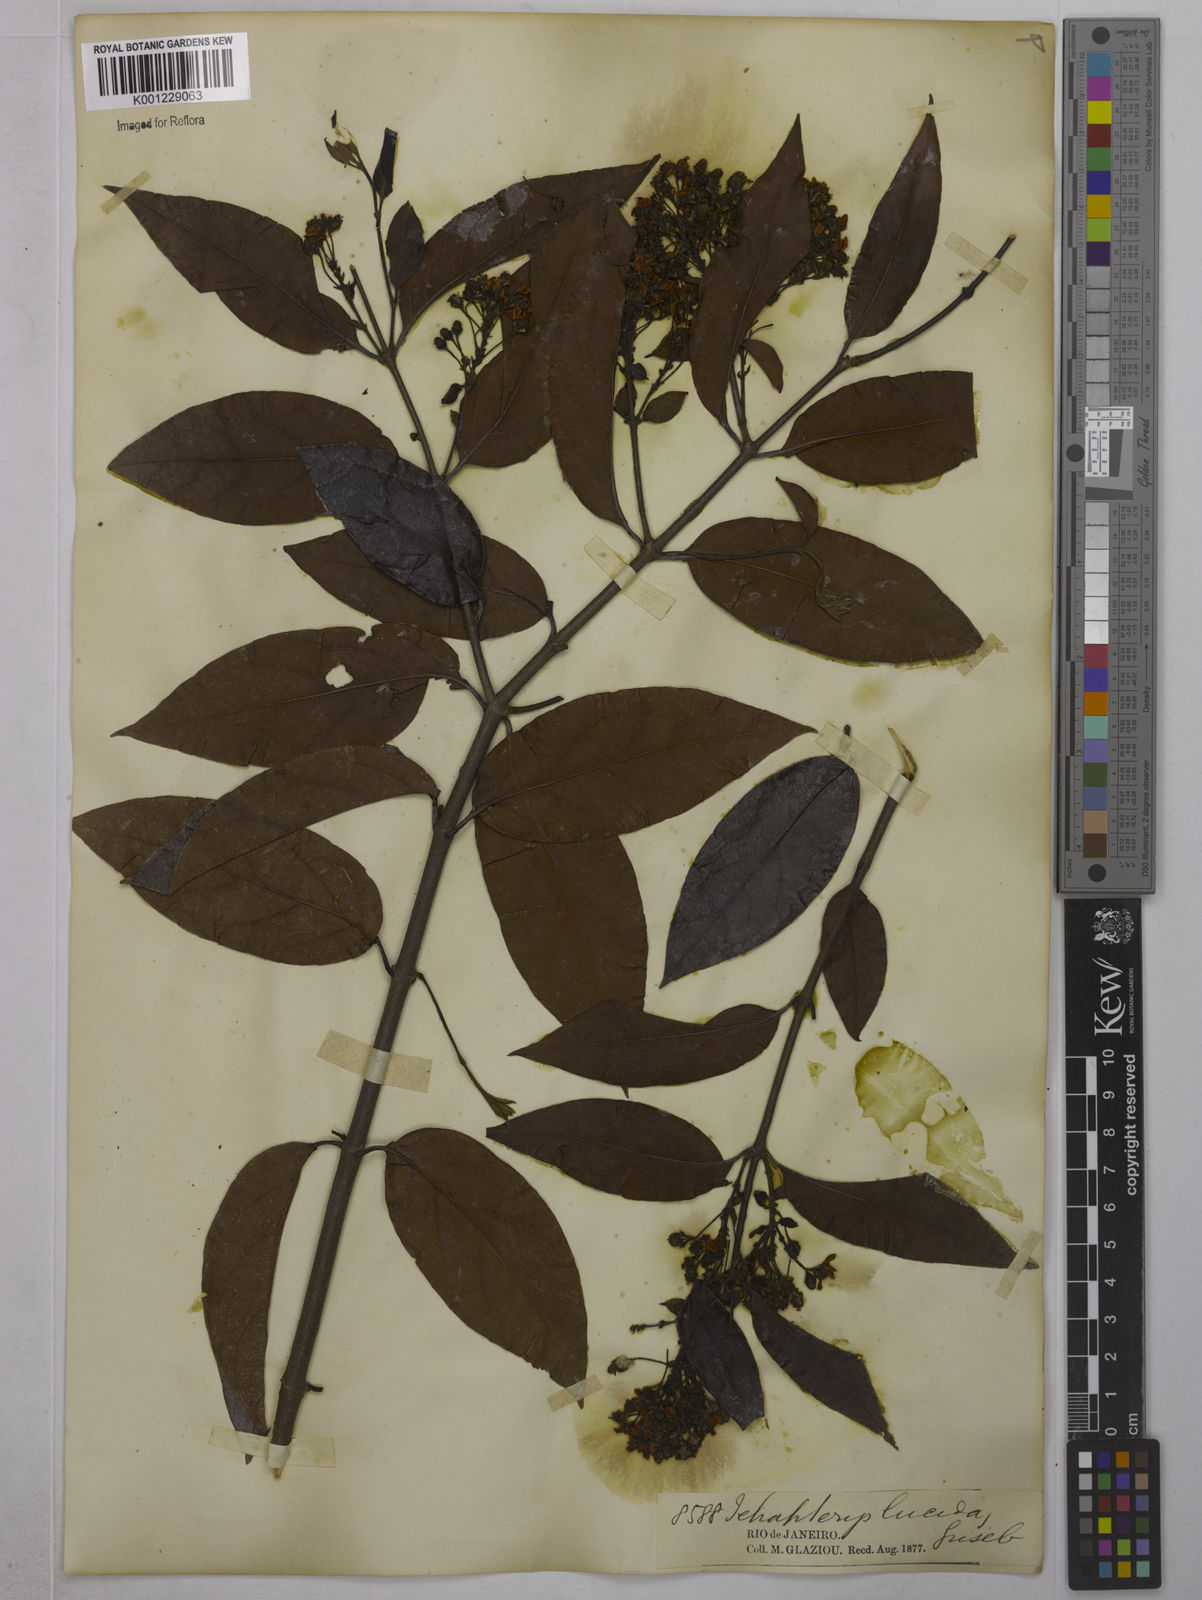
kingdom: Plantae
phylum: Tracheophyta
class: Magnoliopsida
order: Malpighiales
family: Malpighiaceae
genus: Niedenzuella
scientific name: Niedenzuella lucida
